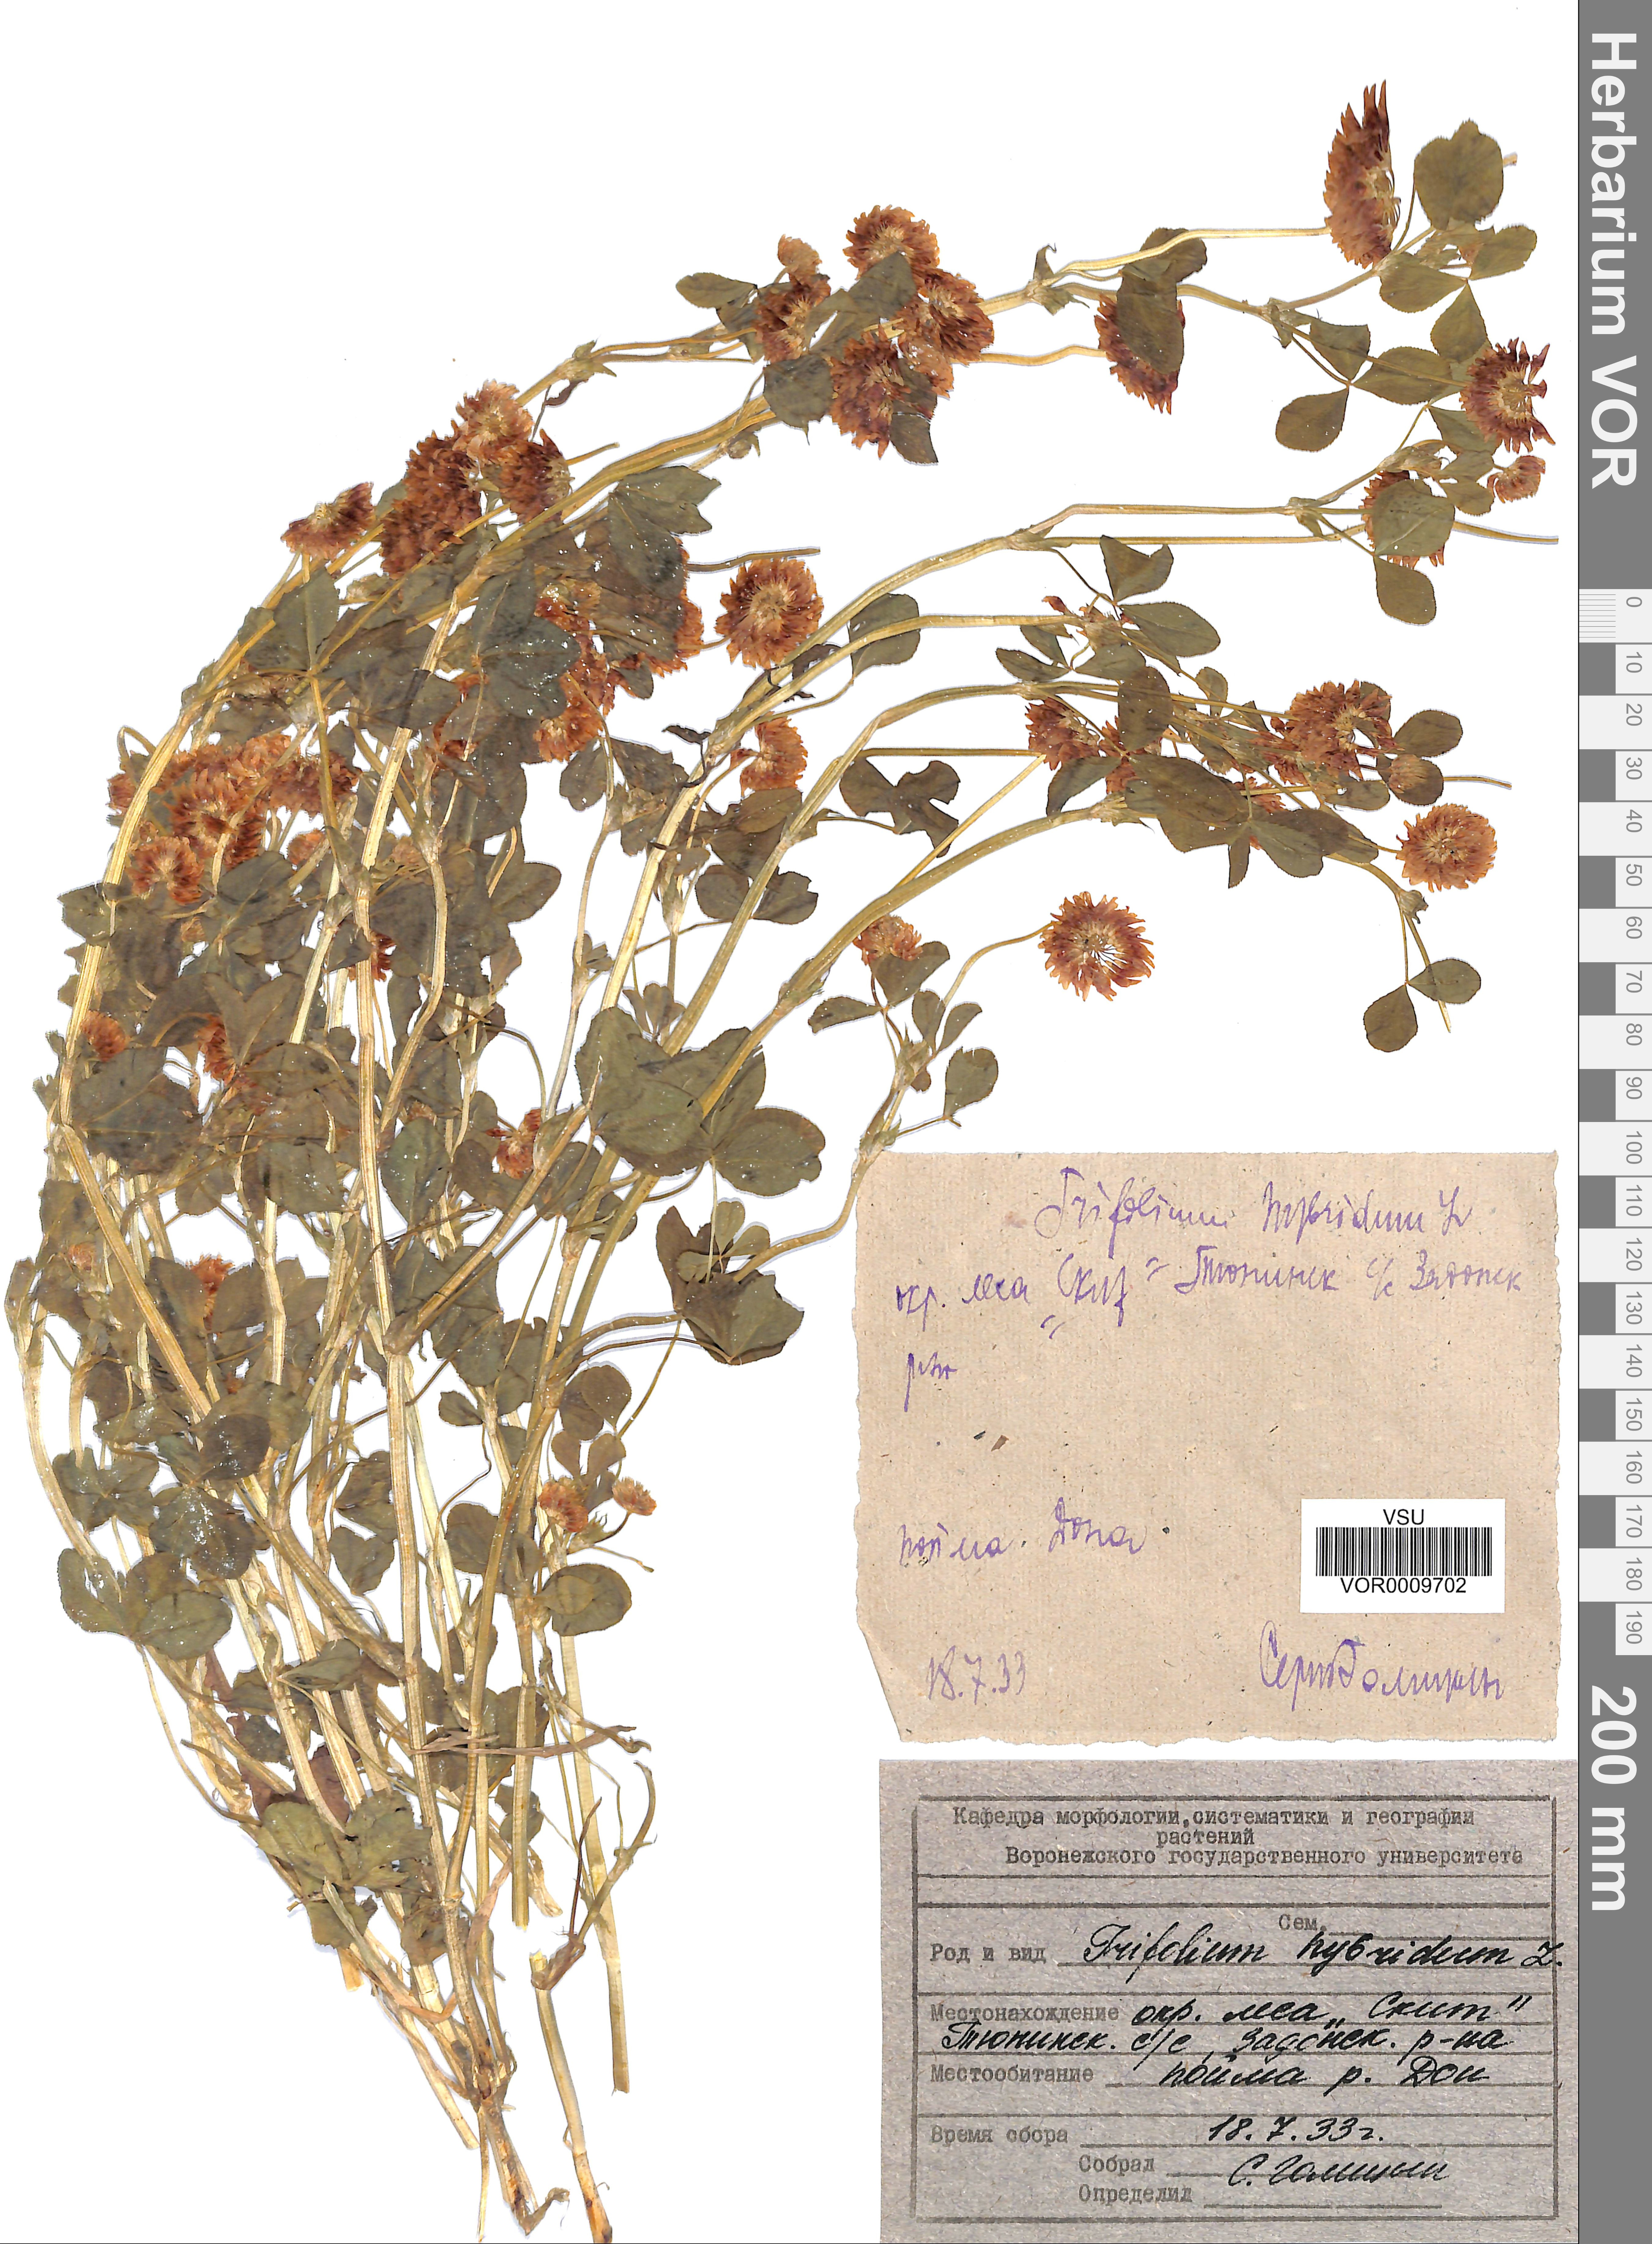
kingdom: Plantae
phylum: Tracheophyta
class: Magnoliopsida
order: Fabales
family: Fabaceae
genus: Trifolium
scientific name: Trifolium hybridum
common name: Alsike clover
